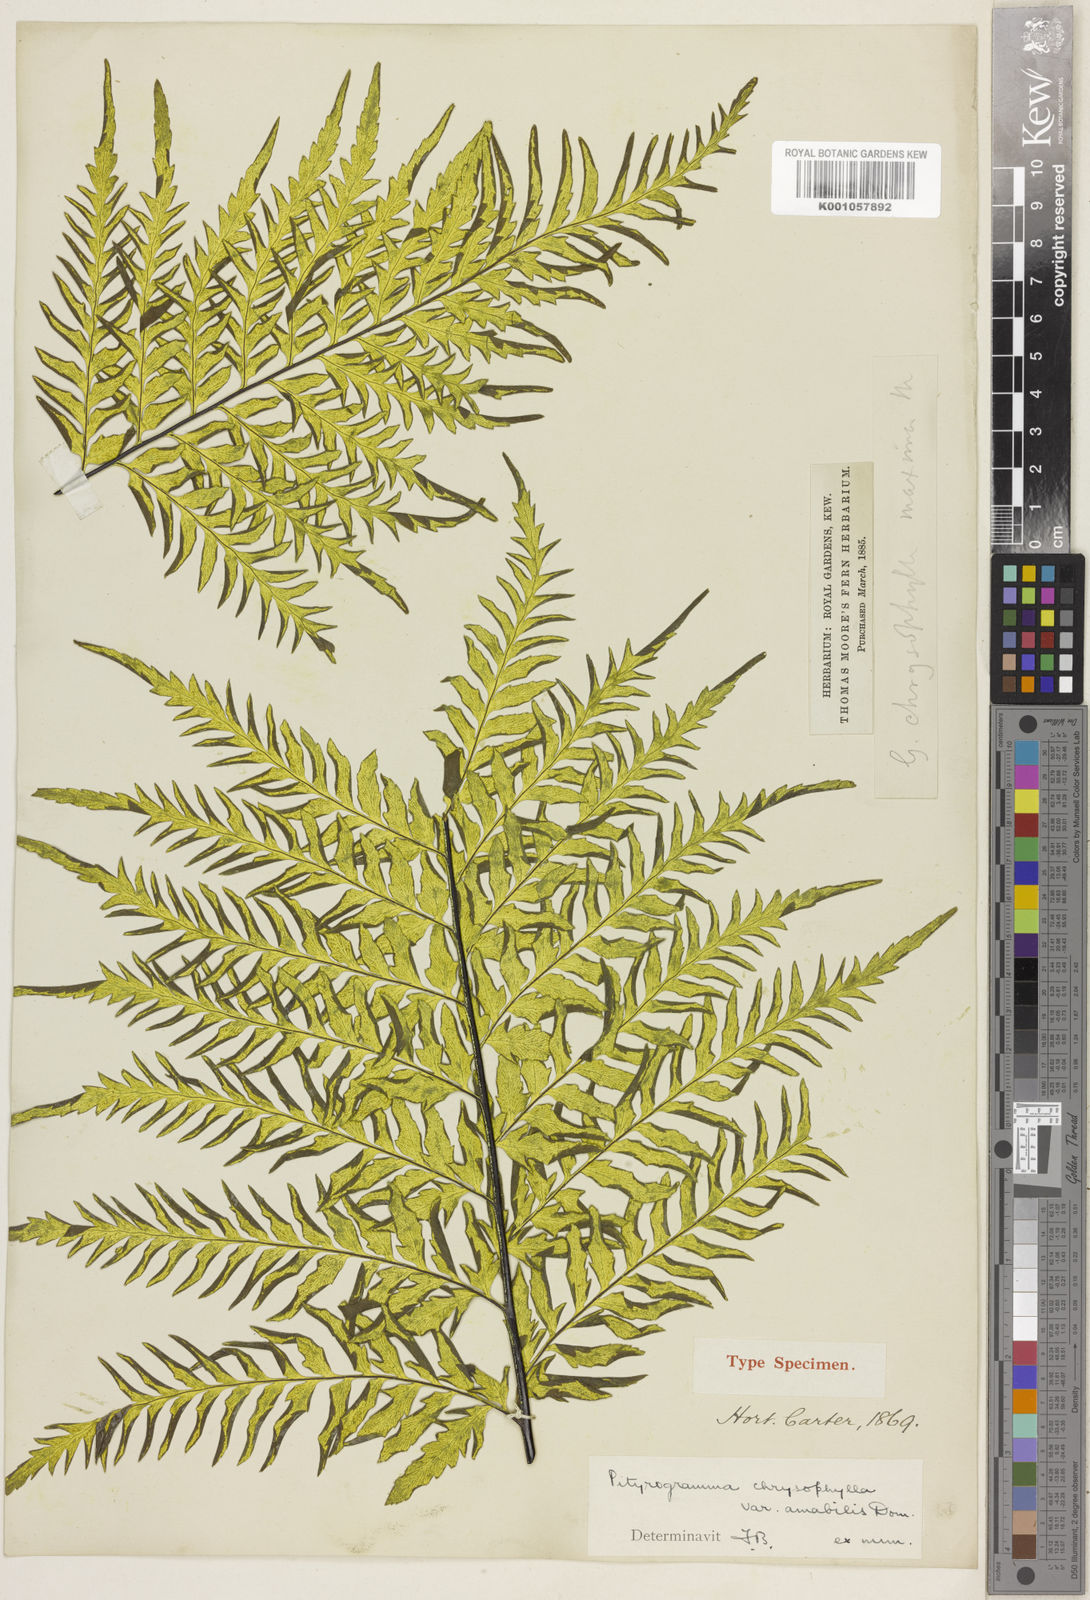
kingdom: Plantae
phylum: Tracheophyta
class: Polypodiopsida
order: Polypodiales
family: Pteridaceae
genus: Pityrogramma
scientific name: Pityrogramma chrysophylla
